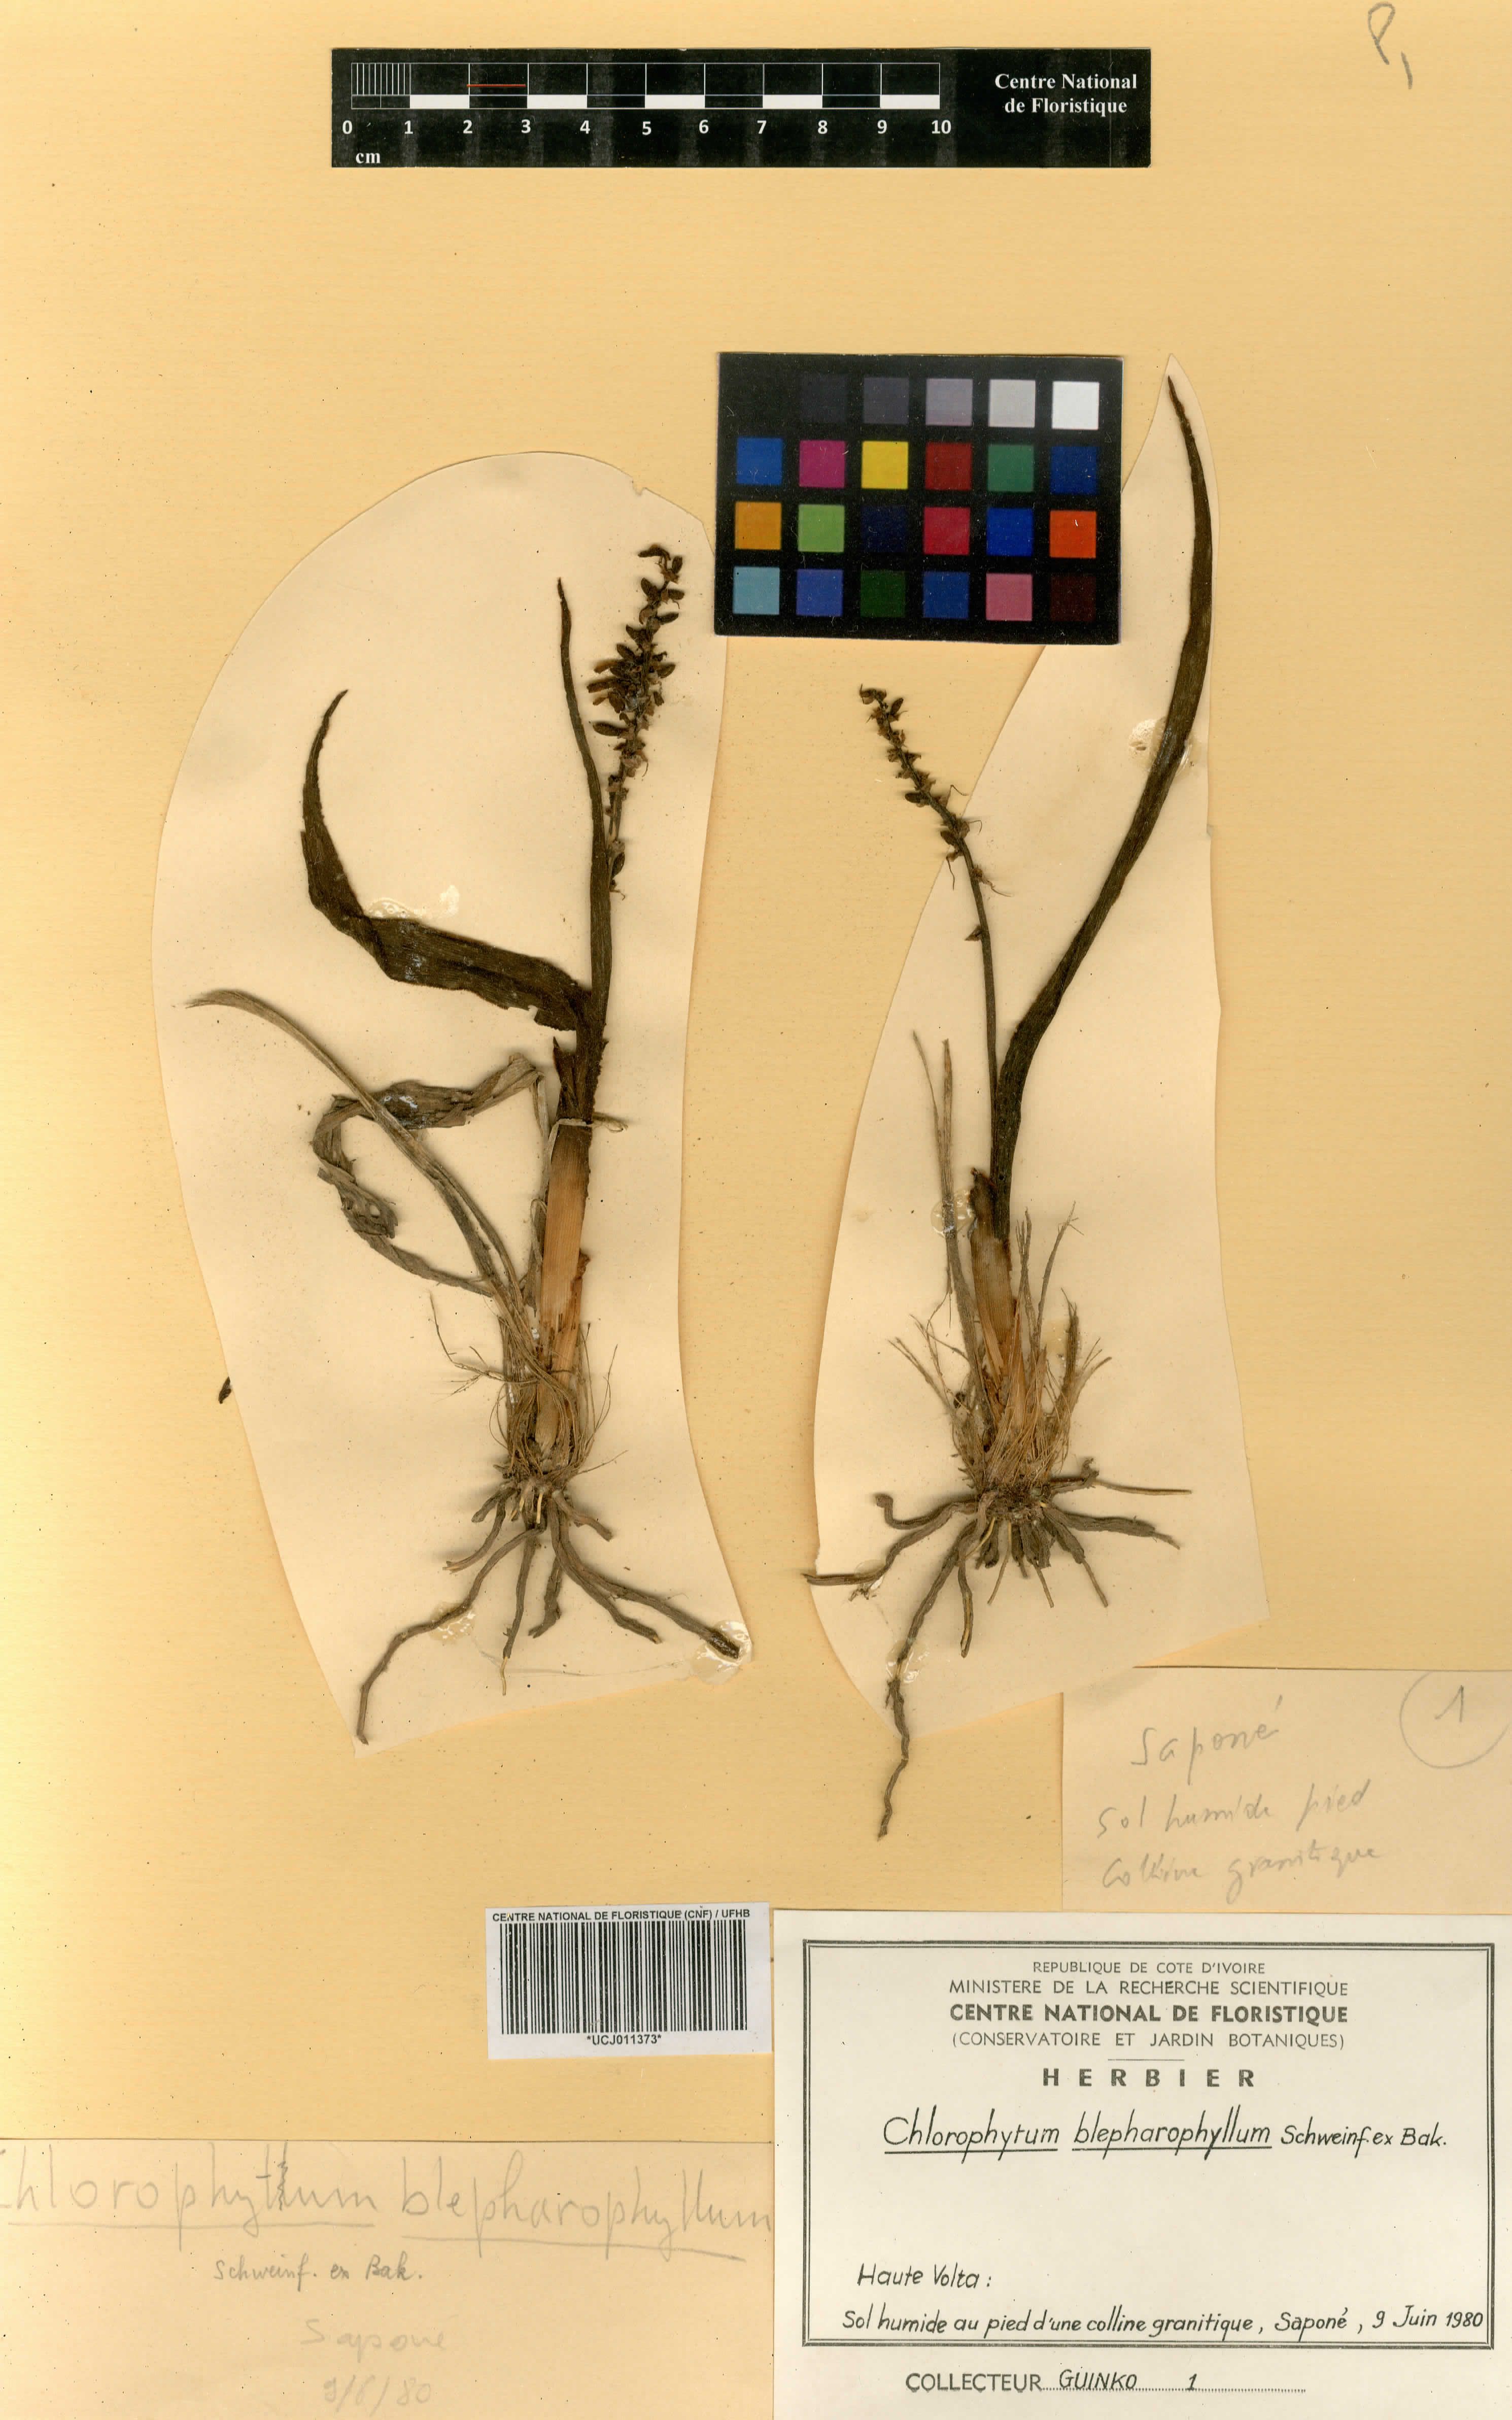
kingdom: Plantae
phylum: Tracheophyta
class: Liliopsida
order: Asparagales
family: Asparagaceae
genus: Chlorophytum
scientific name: Chlorophytum blepharophyllum
